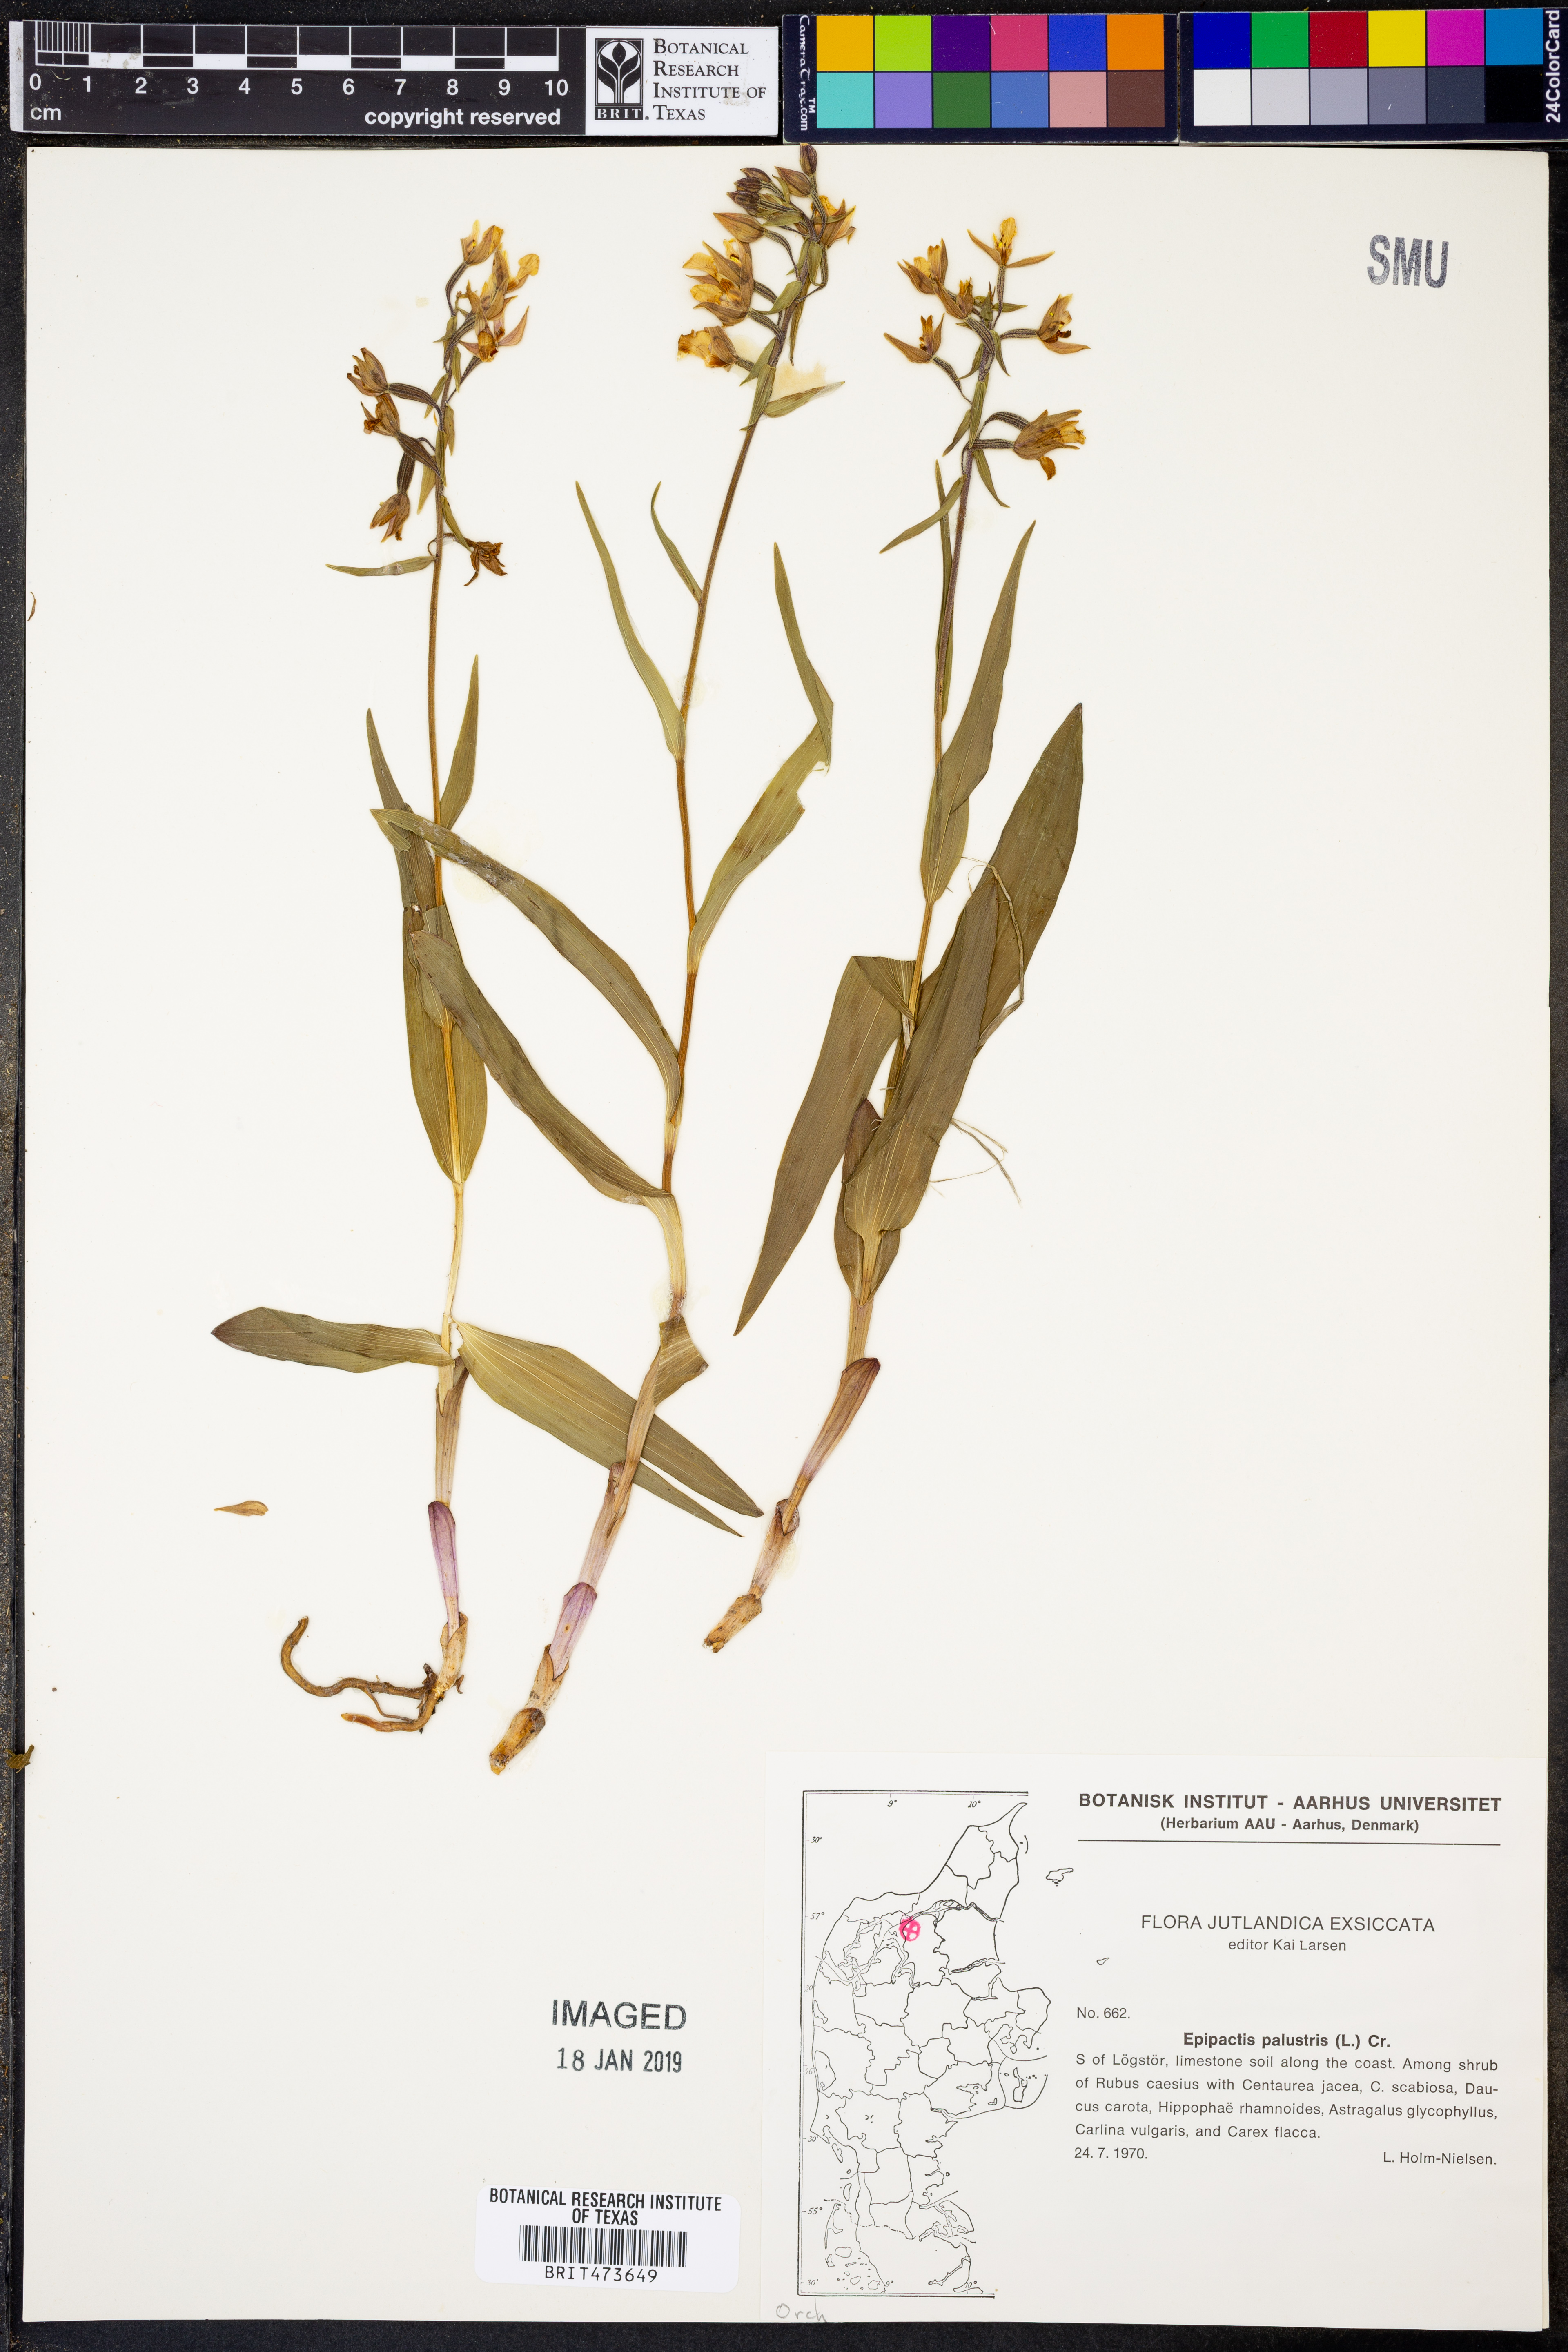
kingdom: Plantae
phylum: Tracheophyta
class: Liliopsida
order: Asparagales
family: Orchidaceae
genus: Epipactis
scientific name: Epipactis palustris
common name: Marsh helleborine
